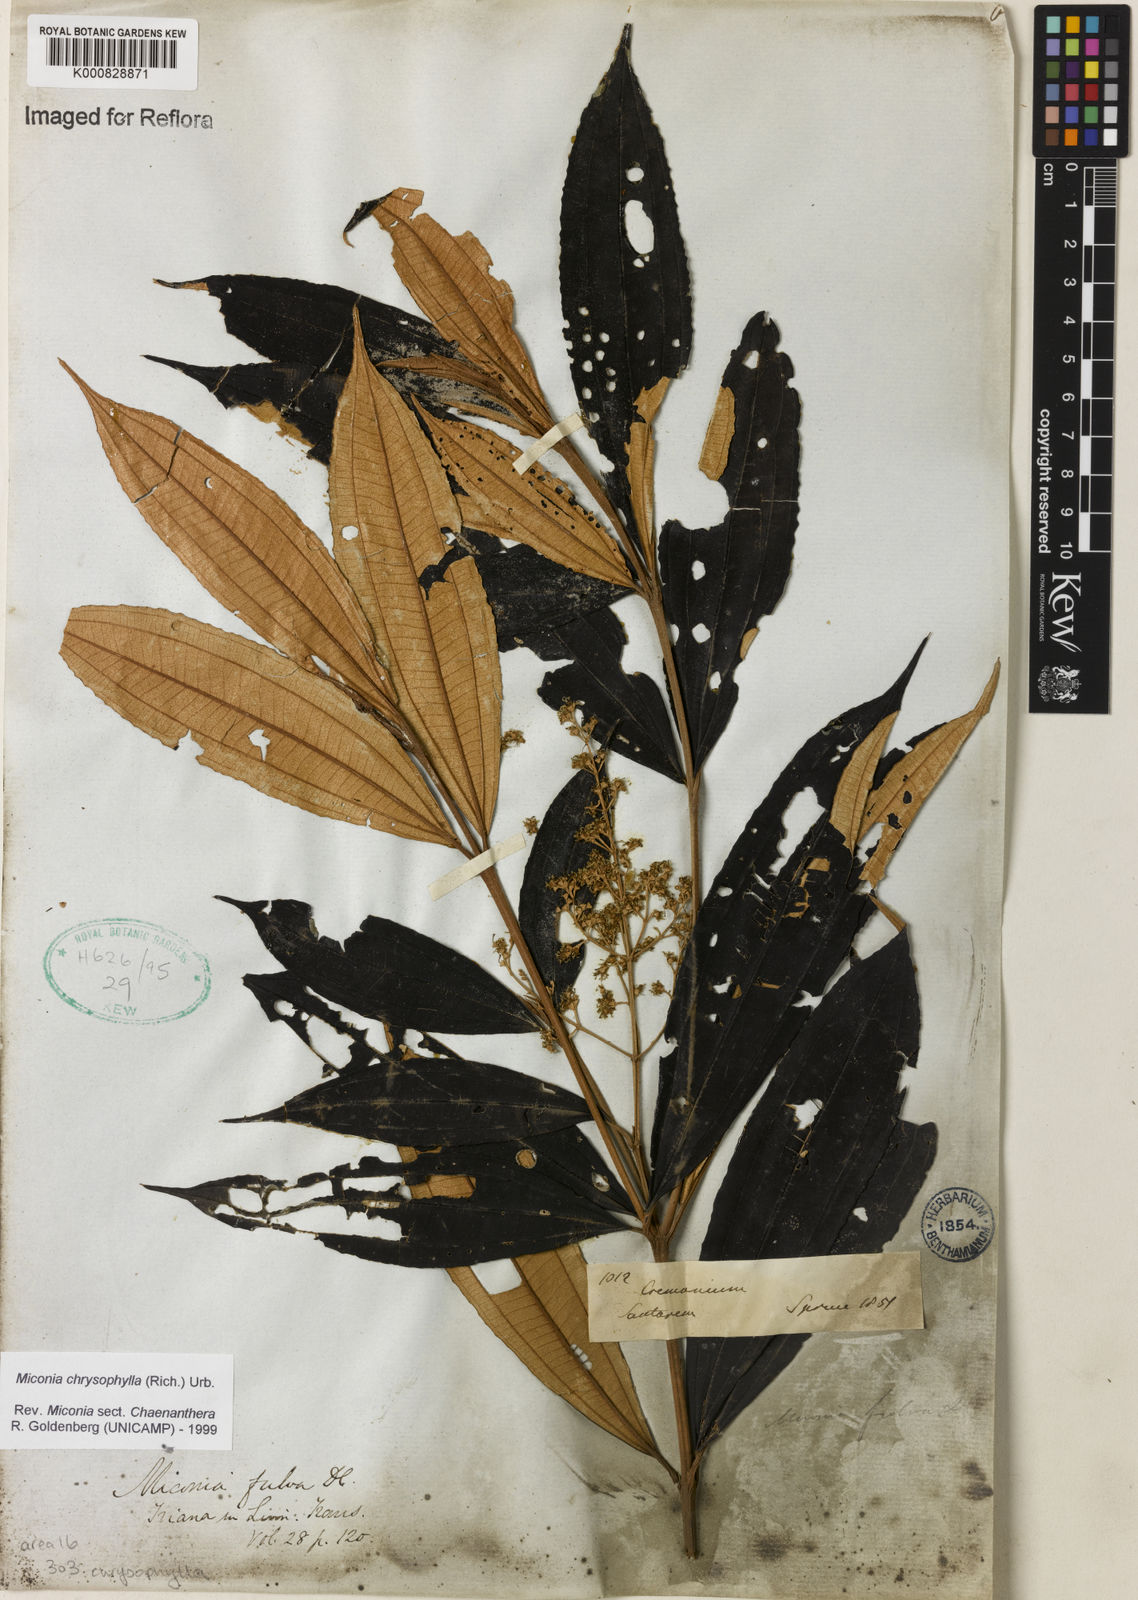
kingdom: Plantae
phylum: Tracheophyta
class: Magnoliopsida
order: Myrtales
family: Melastomataceae
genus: Miconia
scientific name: Miconia chrysophylla
